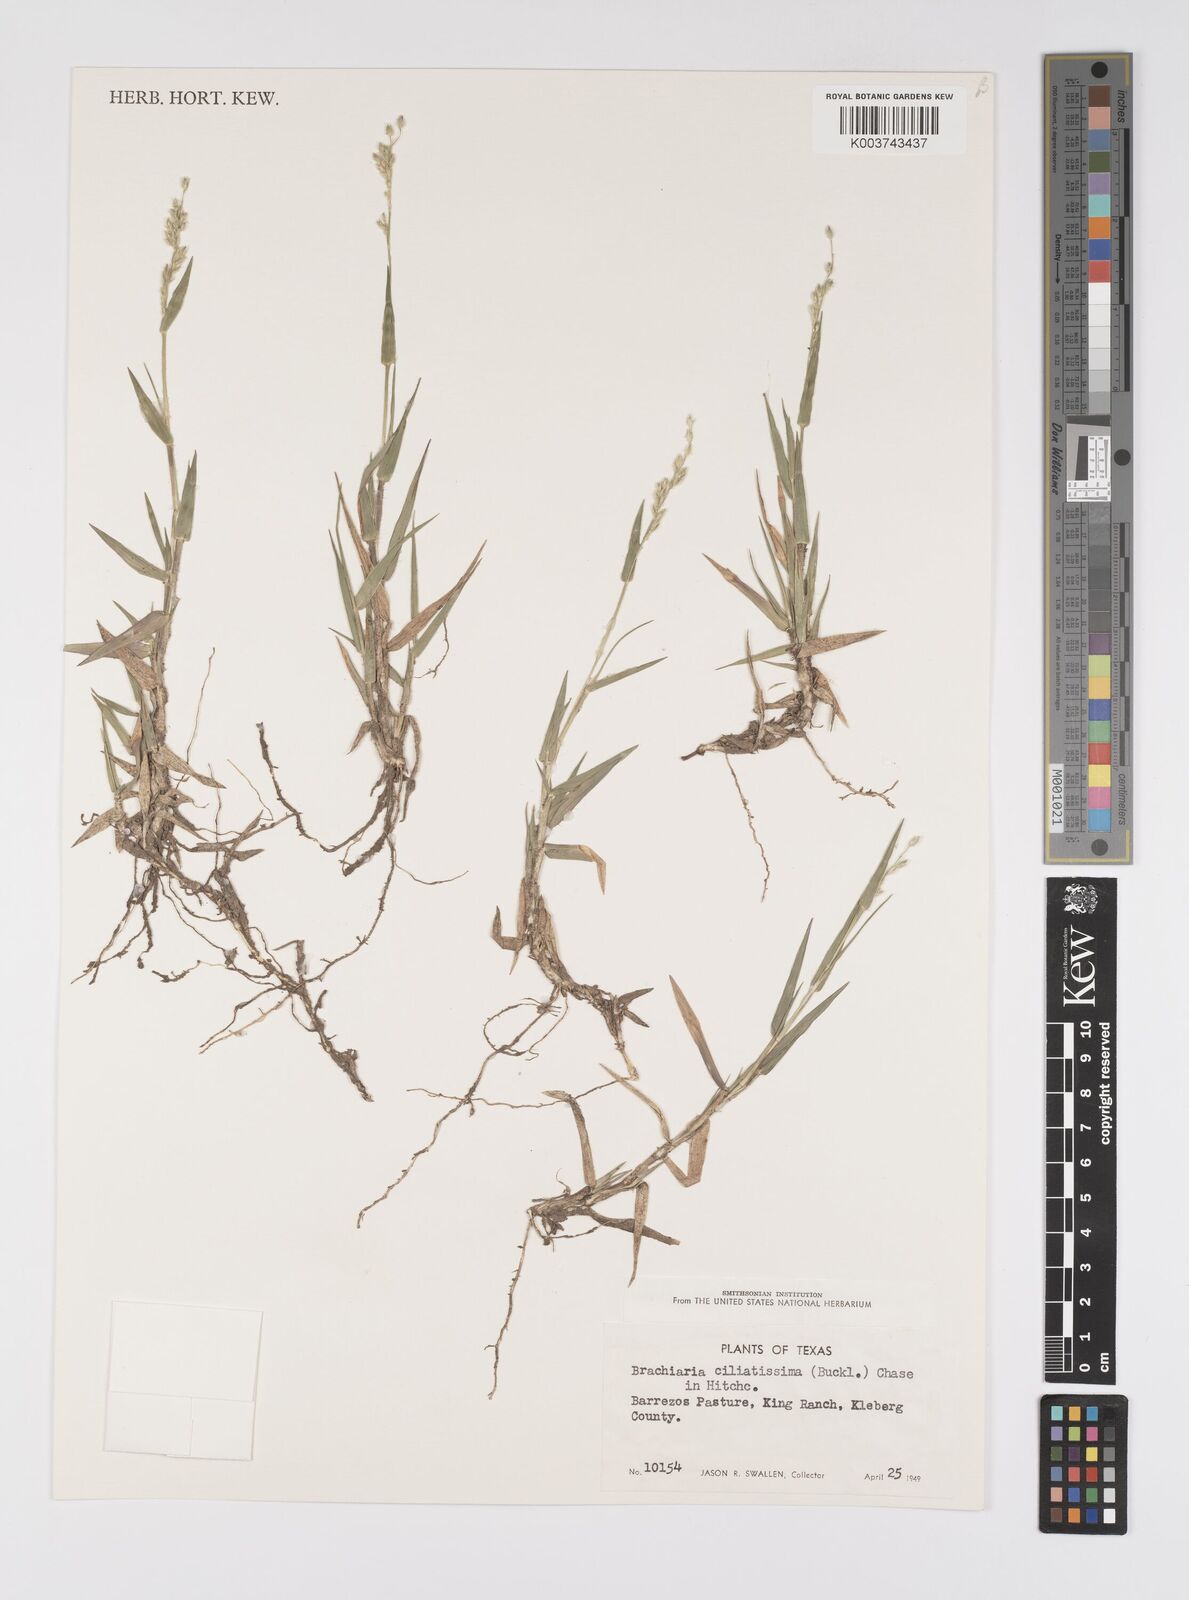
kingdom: Plantae
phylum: Tracheophyta
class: Liliopsida
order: Poales
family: Poaceae
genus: Urochloa
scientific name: Urochloa ciliatissima
